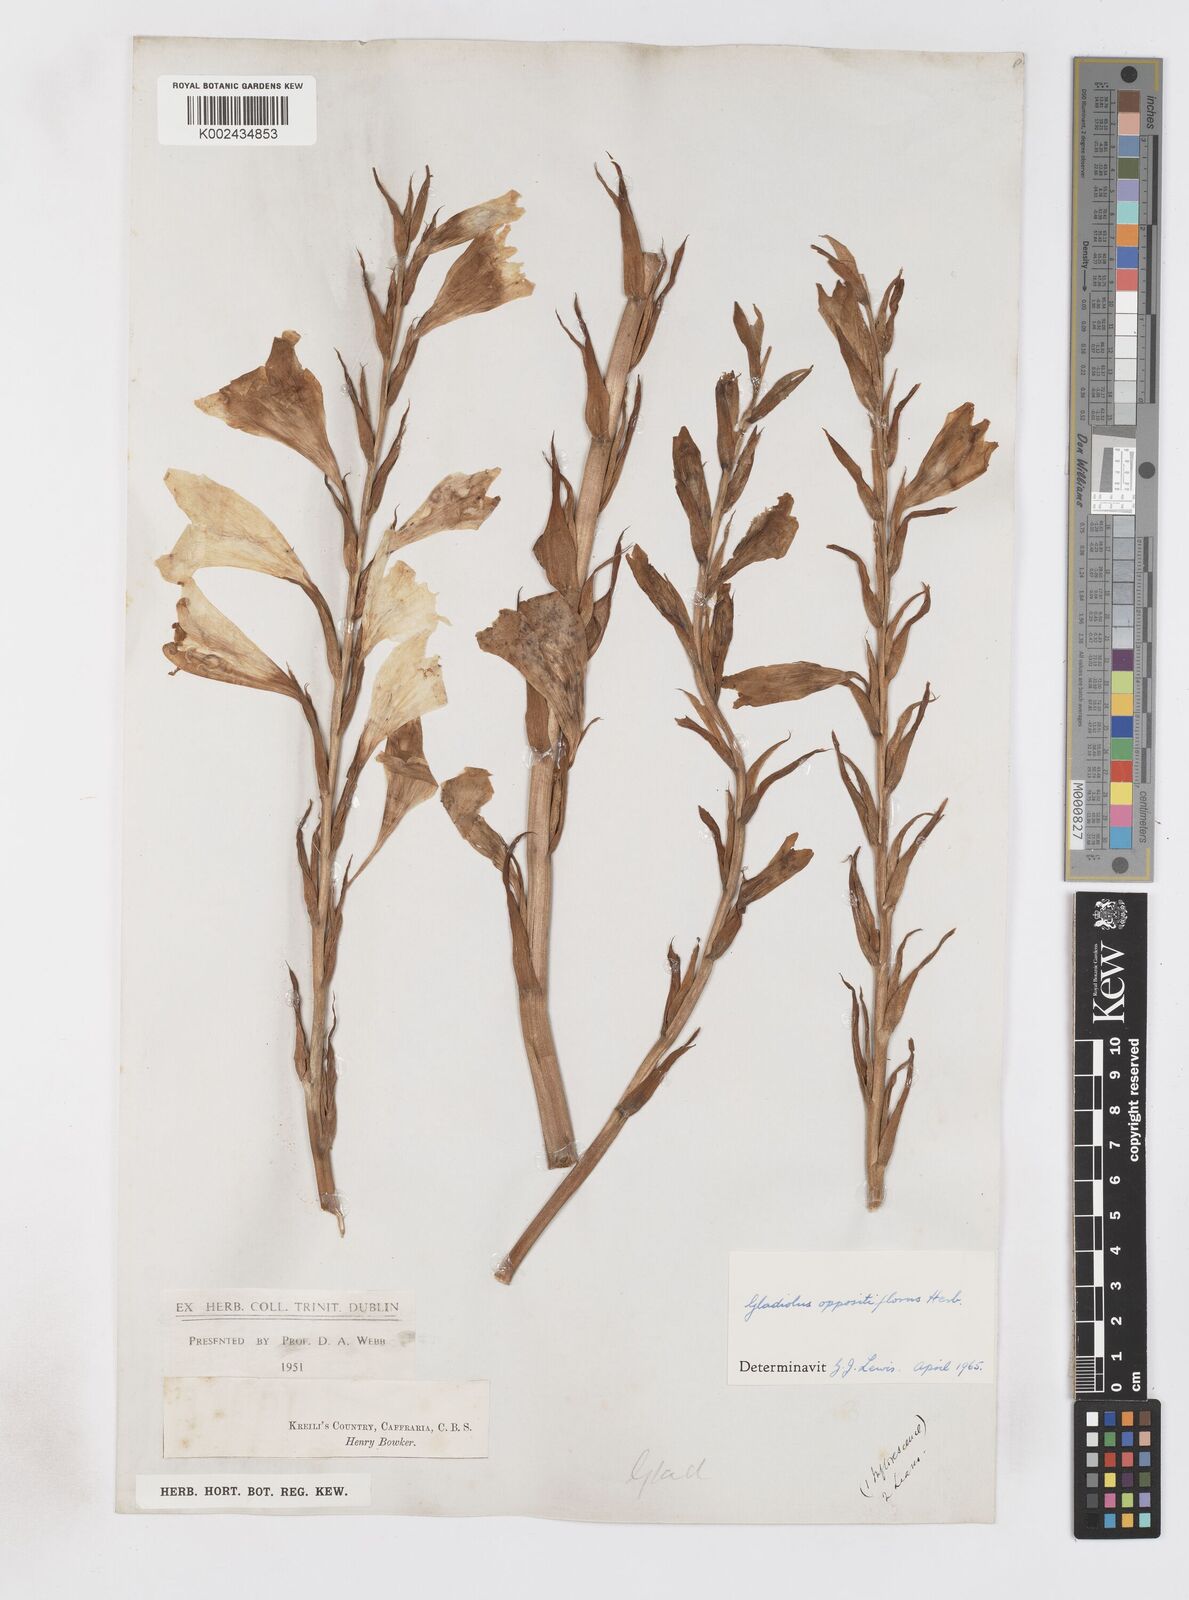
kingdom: Plantae
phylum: Tracheophyta
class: Liliopsida
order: Asparagales
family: Iridaceae
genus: Gladiolus
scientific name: Gladiolus oppositiflorus
